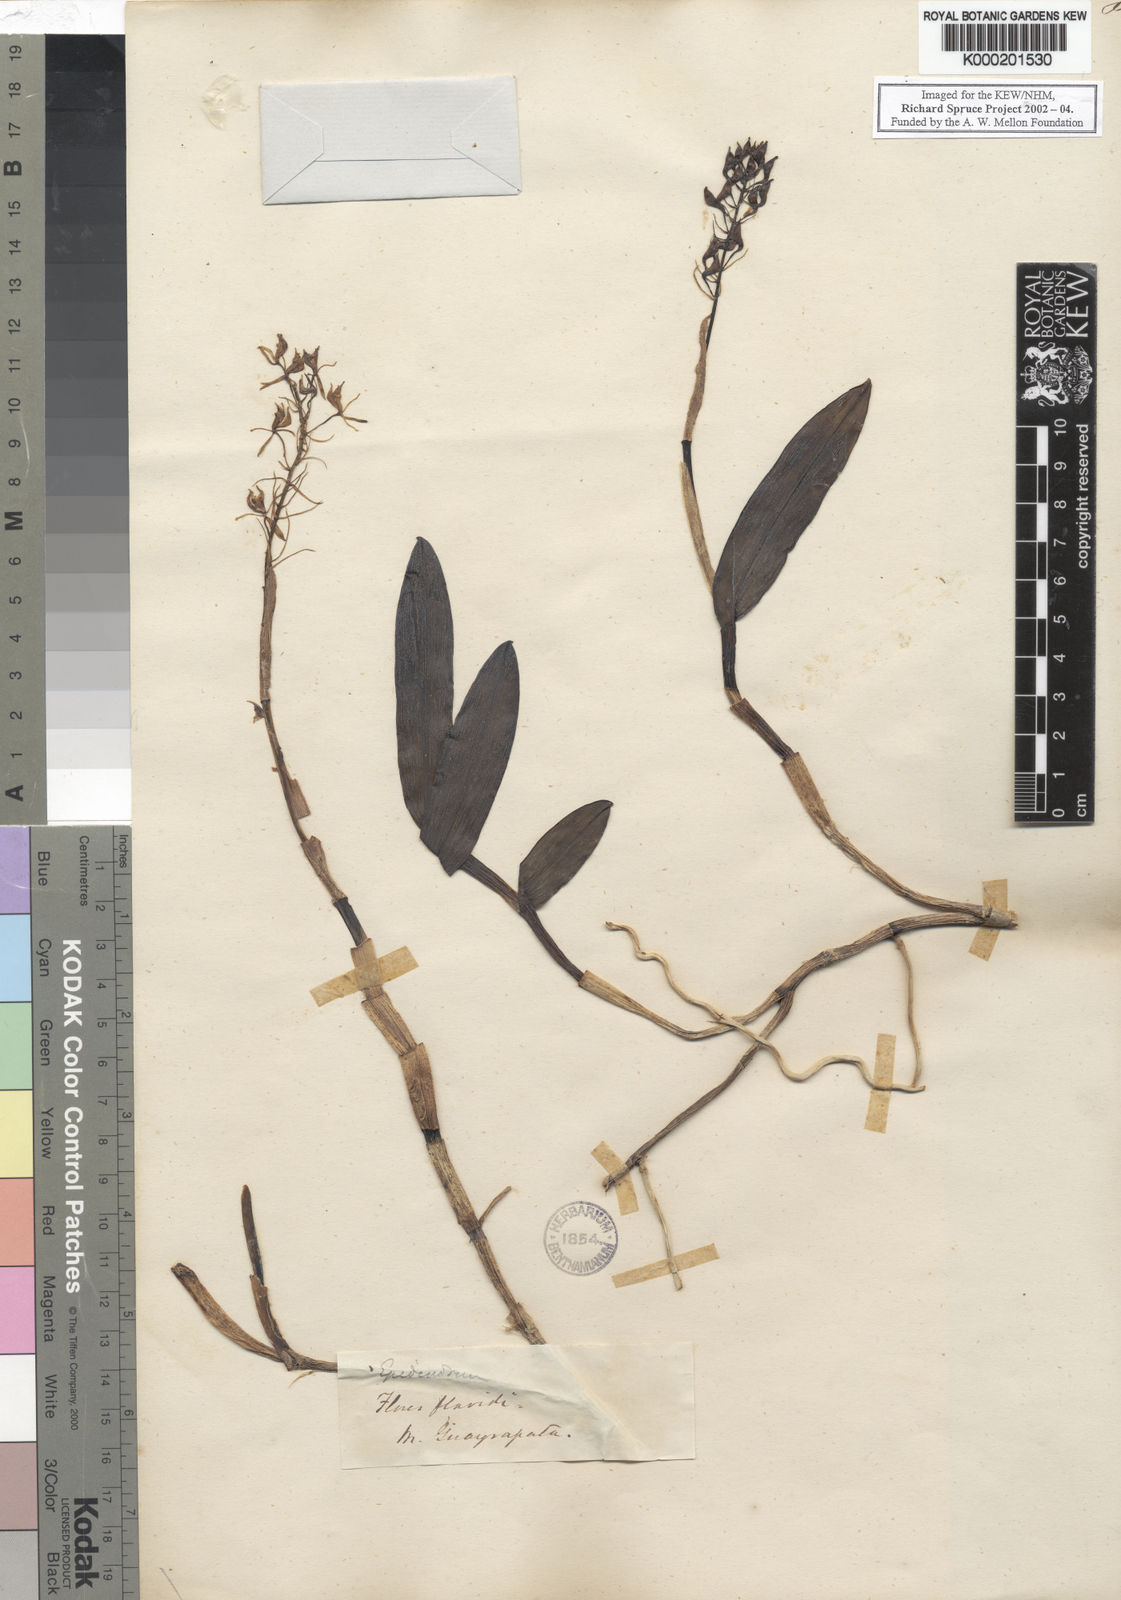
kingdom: Plantae
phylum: Tracheophyta
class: Liliopsida
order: Asparagales
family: Orchidaceae
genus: Epidendrum
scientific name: Epidendrum
